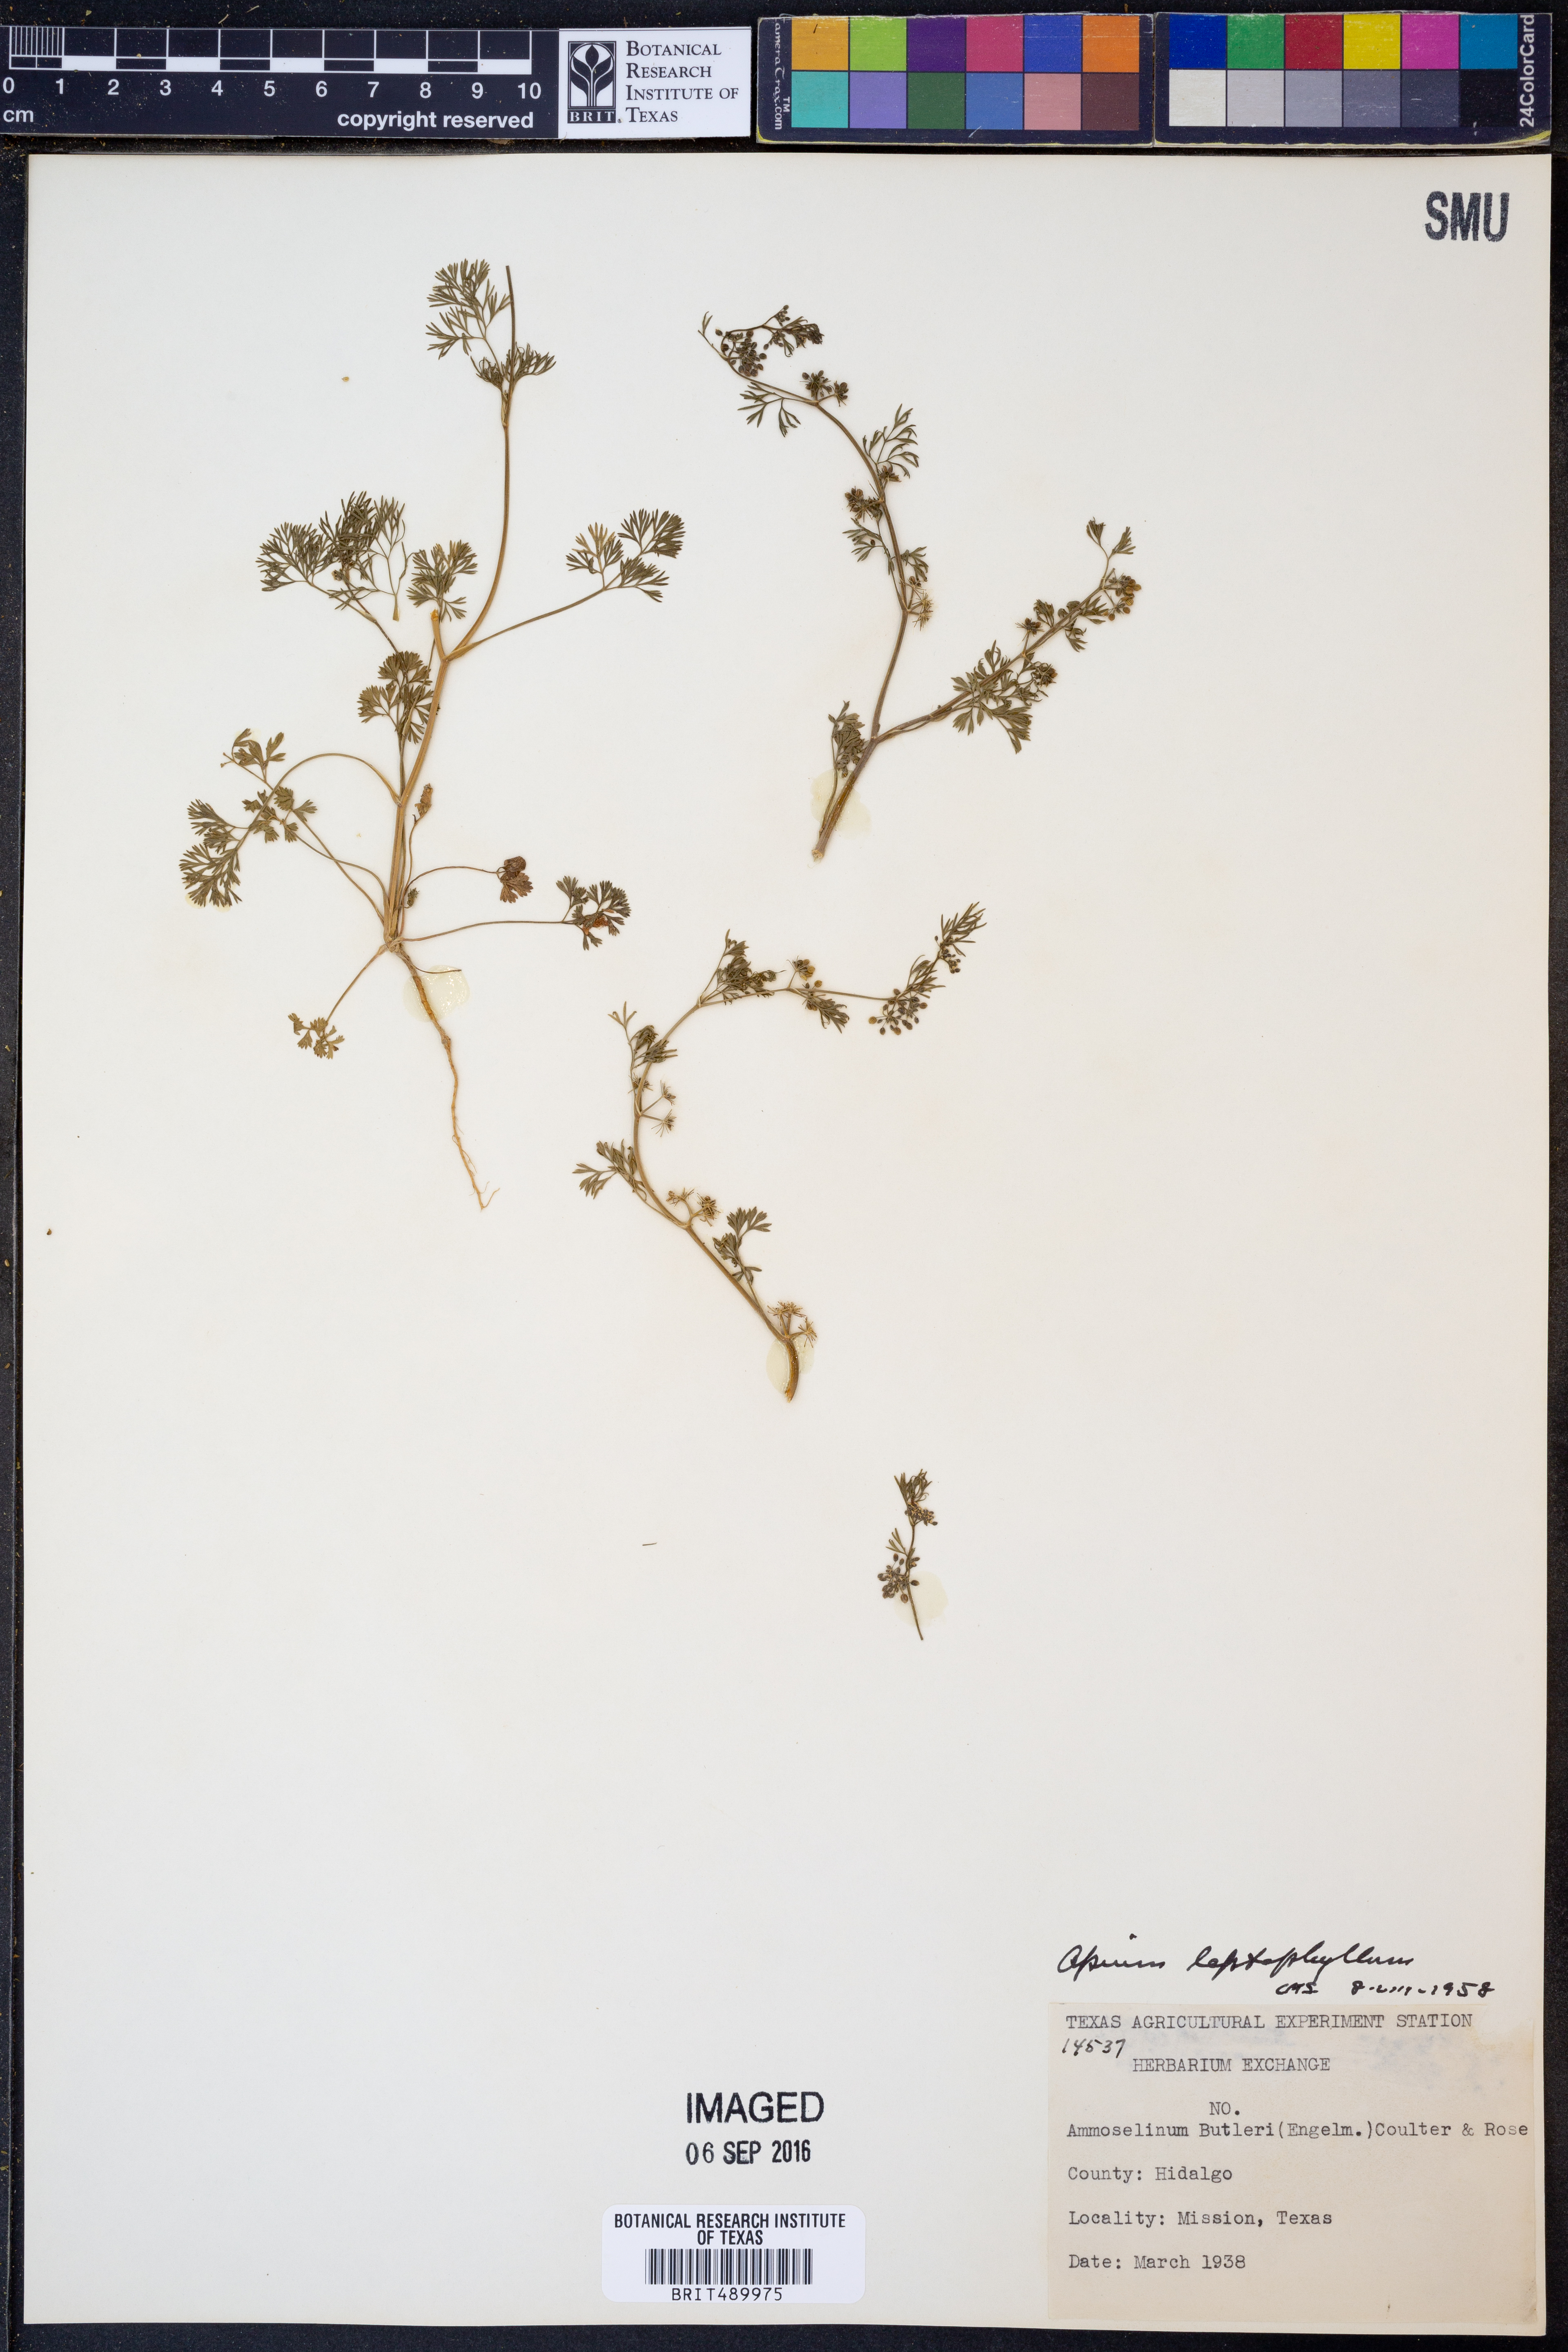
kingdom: Plantae
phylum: Tracheophyta
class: Magnoliopsida
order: Apiales
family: Apiaceae
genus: Cyclospermum
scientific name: Cyclospermum leptophyllum
